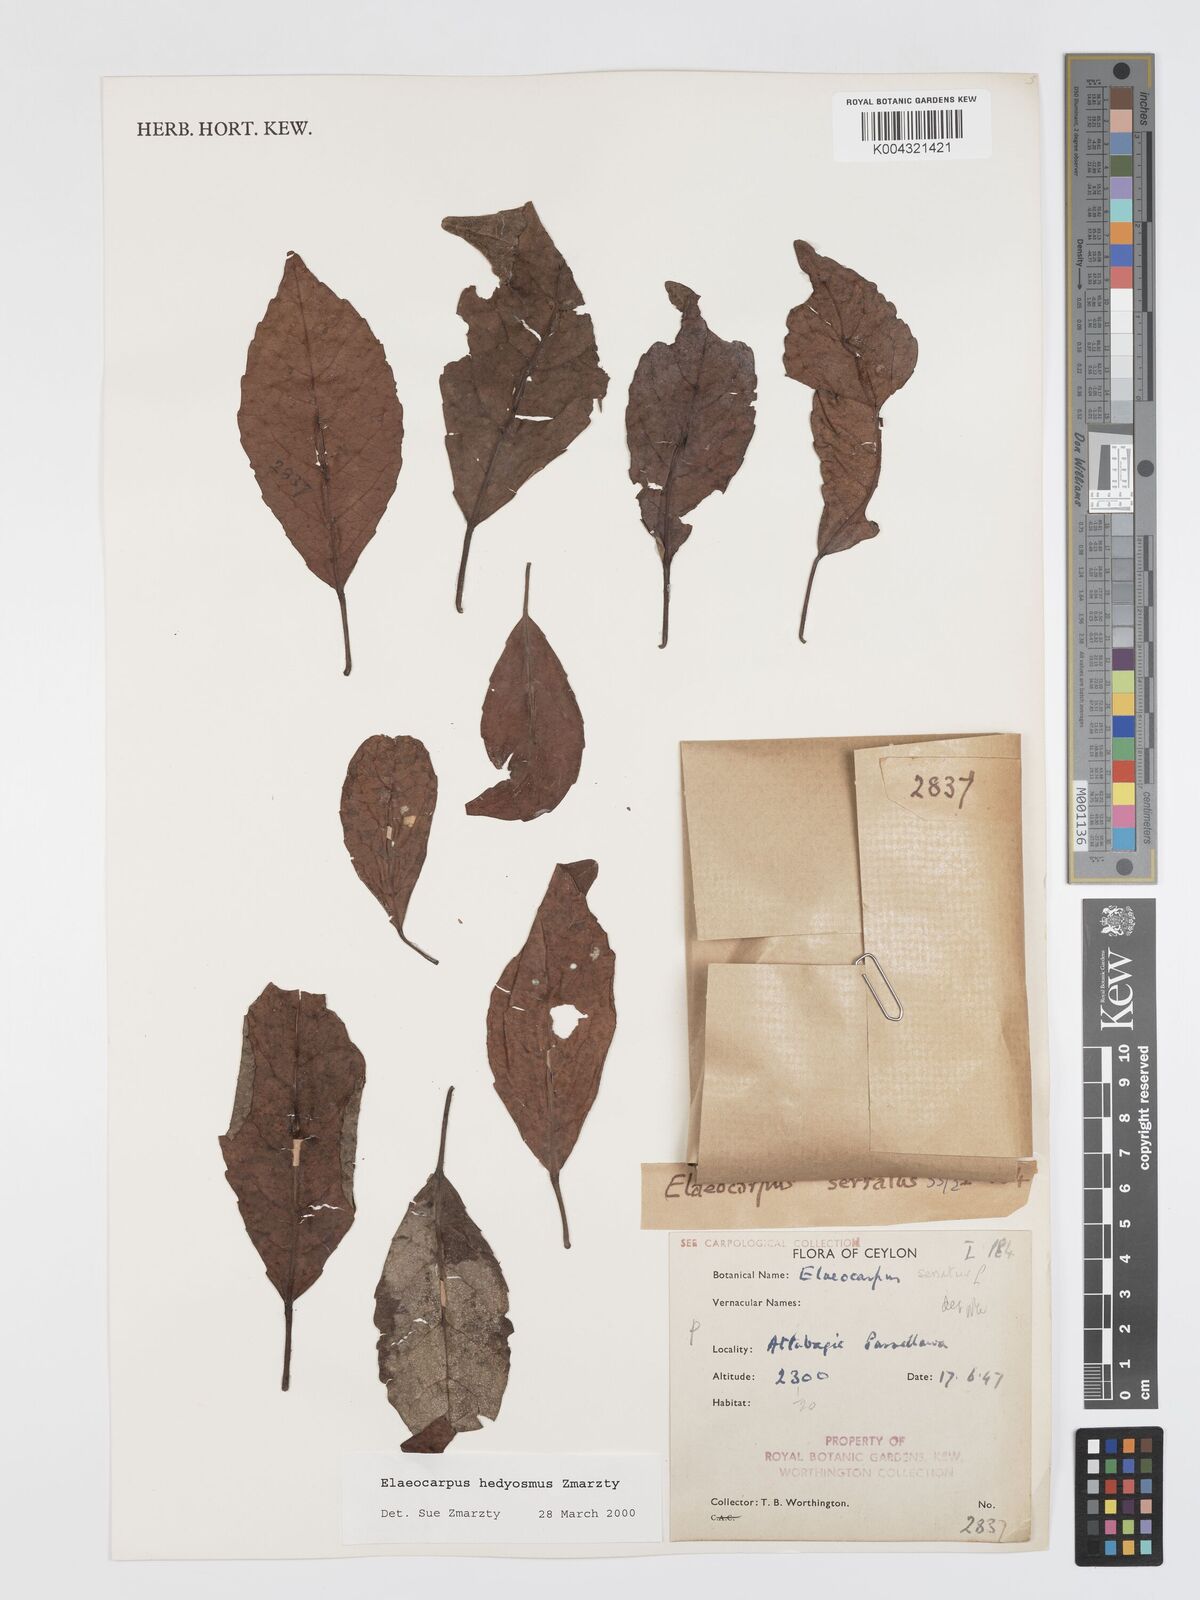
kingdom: Plantae
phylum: Tracheophyta
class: Magnoliopsida
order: Oxalidales
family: Elaeocarpaceae
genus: Elaeocarpus
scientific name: Elaeocarpus hedyosmus
